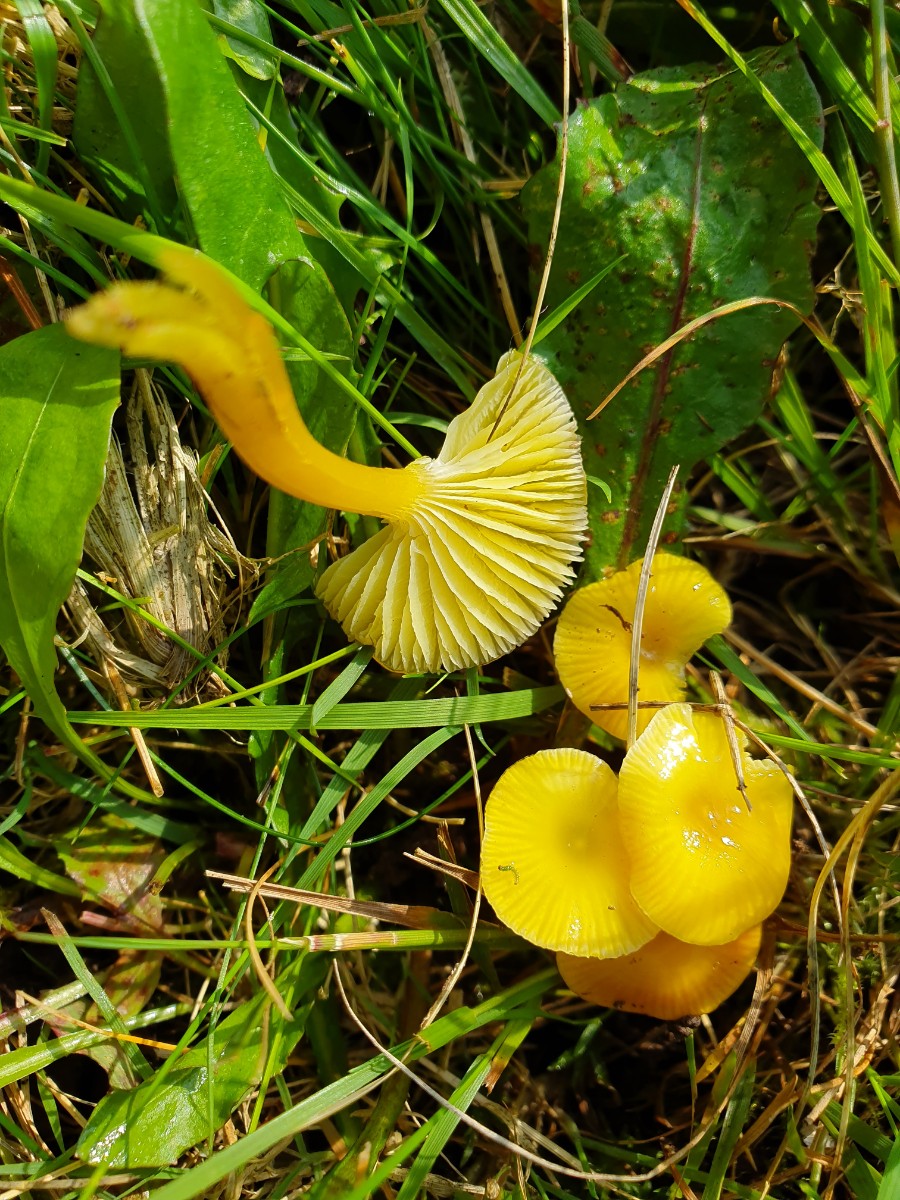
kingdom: Fungi
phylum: Basidiomycota
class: Agaricomycetes
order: Agaricales
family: Hygrophoraceae
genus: Hygrocybe
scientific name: Hygrocybe ceracea
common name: voksgul vokshat
